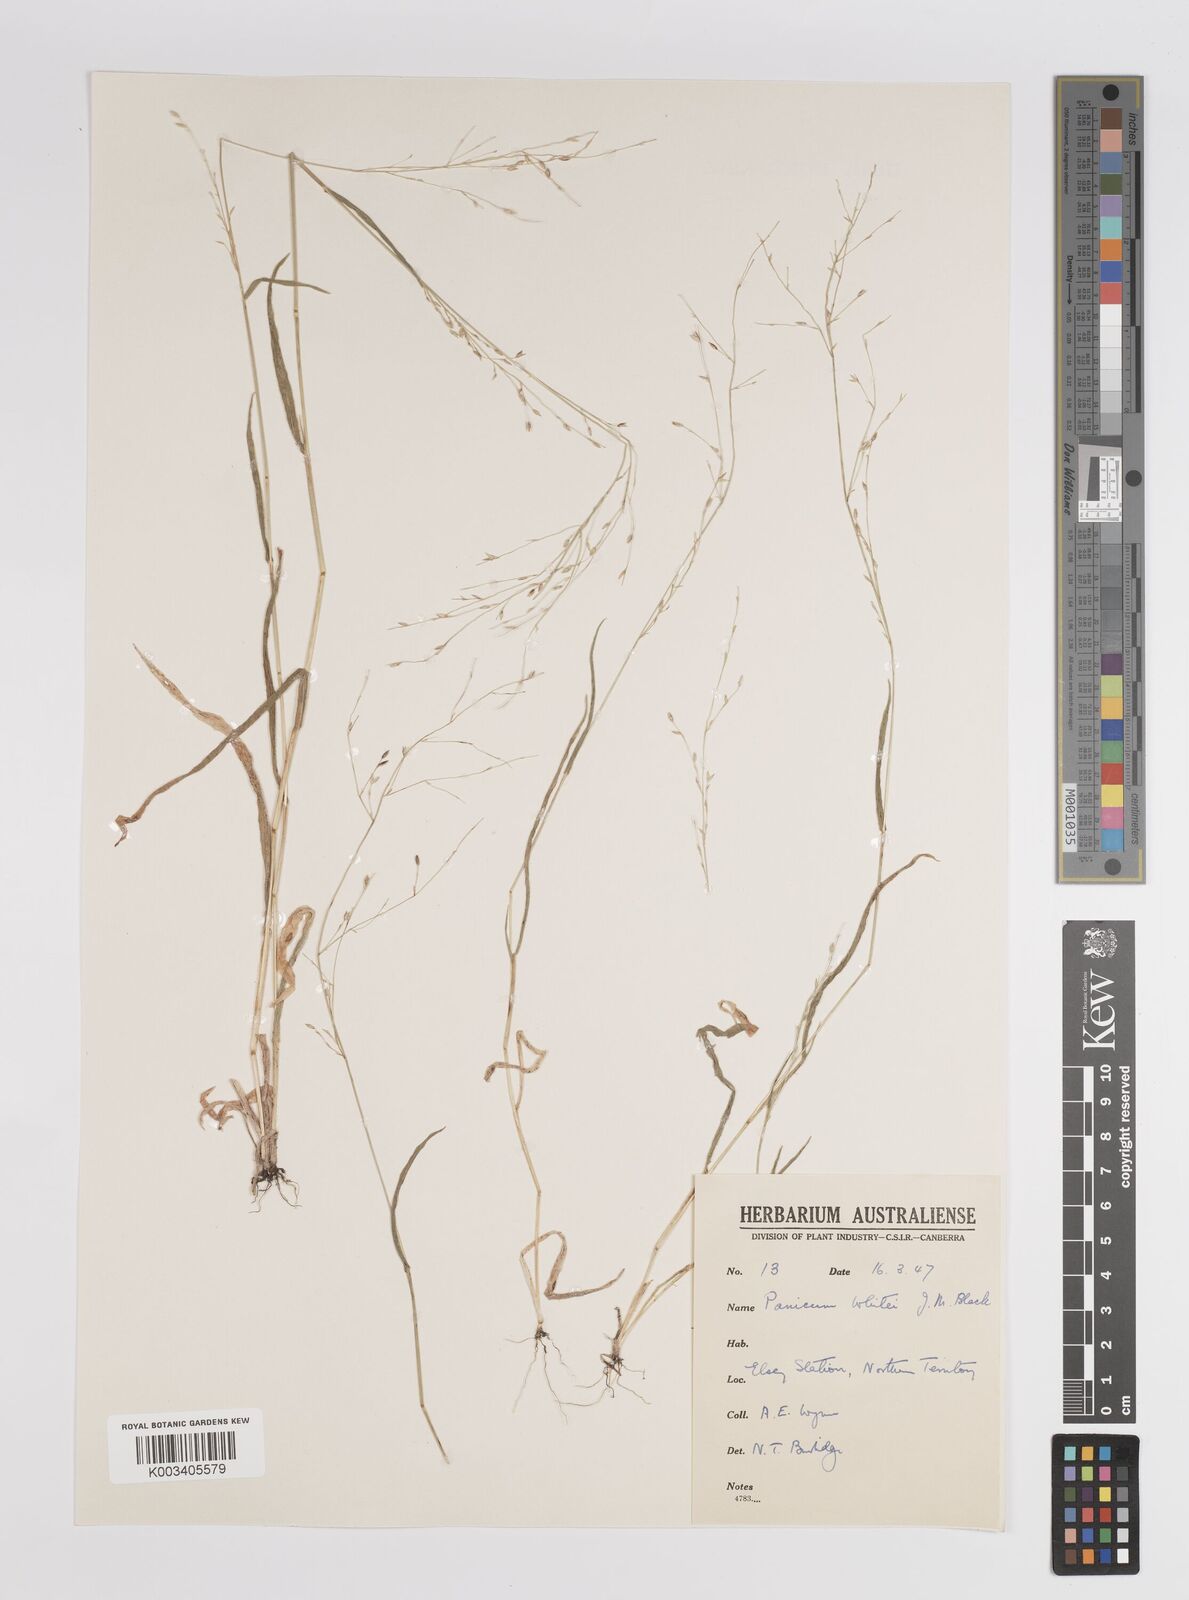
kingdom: Plantae
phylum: Tracheophyta
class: Liliopsida
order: Poales
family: Poaceae
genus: Panicum
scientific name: Panicum
